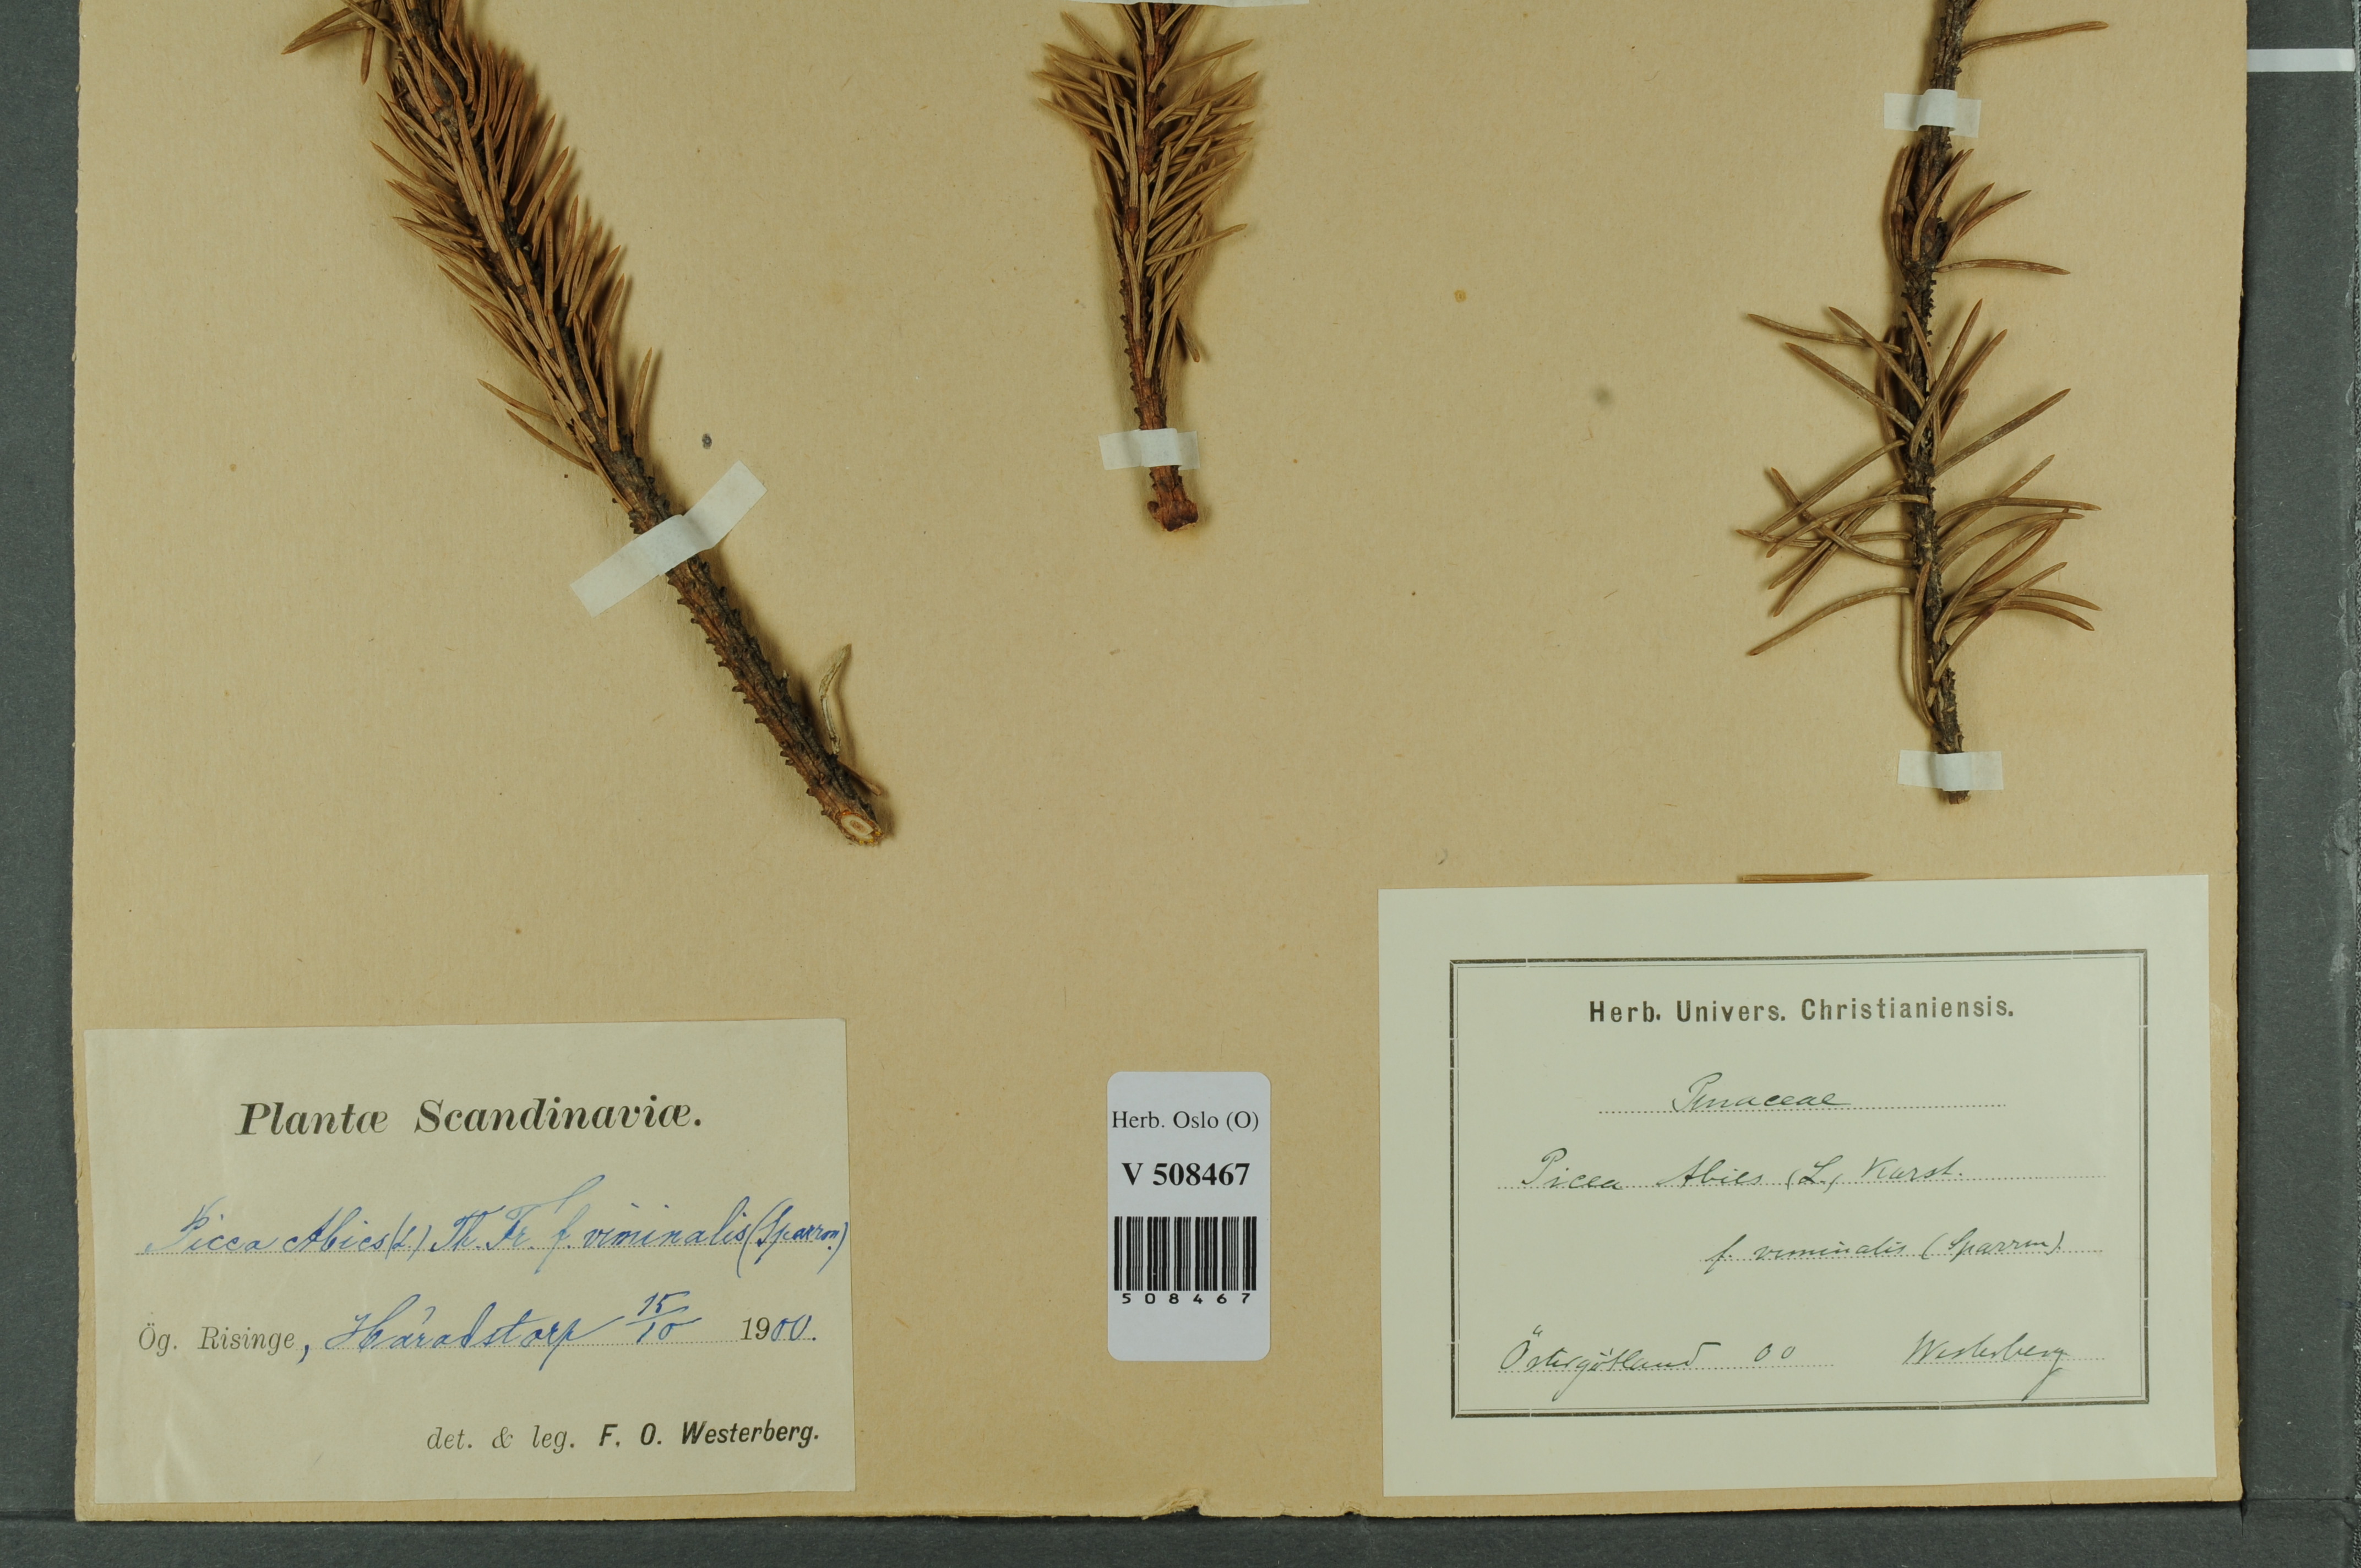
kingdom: Plantae
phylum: Tracheophyta
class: Pinopsida
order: Pinales
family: Pinaceae
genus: Picea
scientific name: Picea abies
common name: Norway spruce
